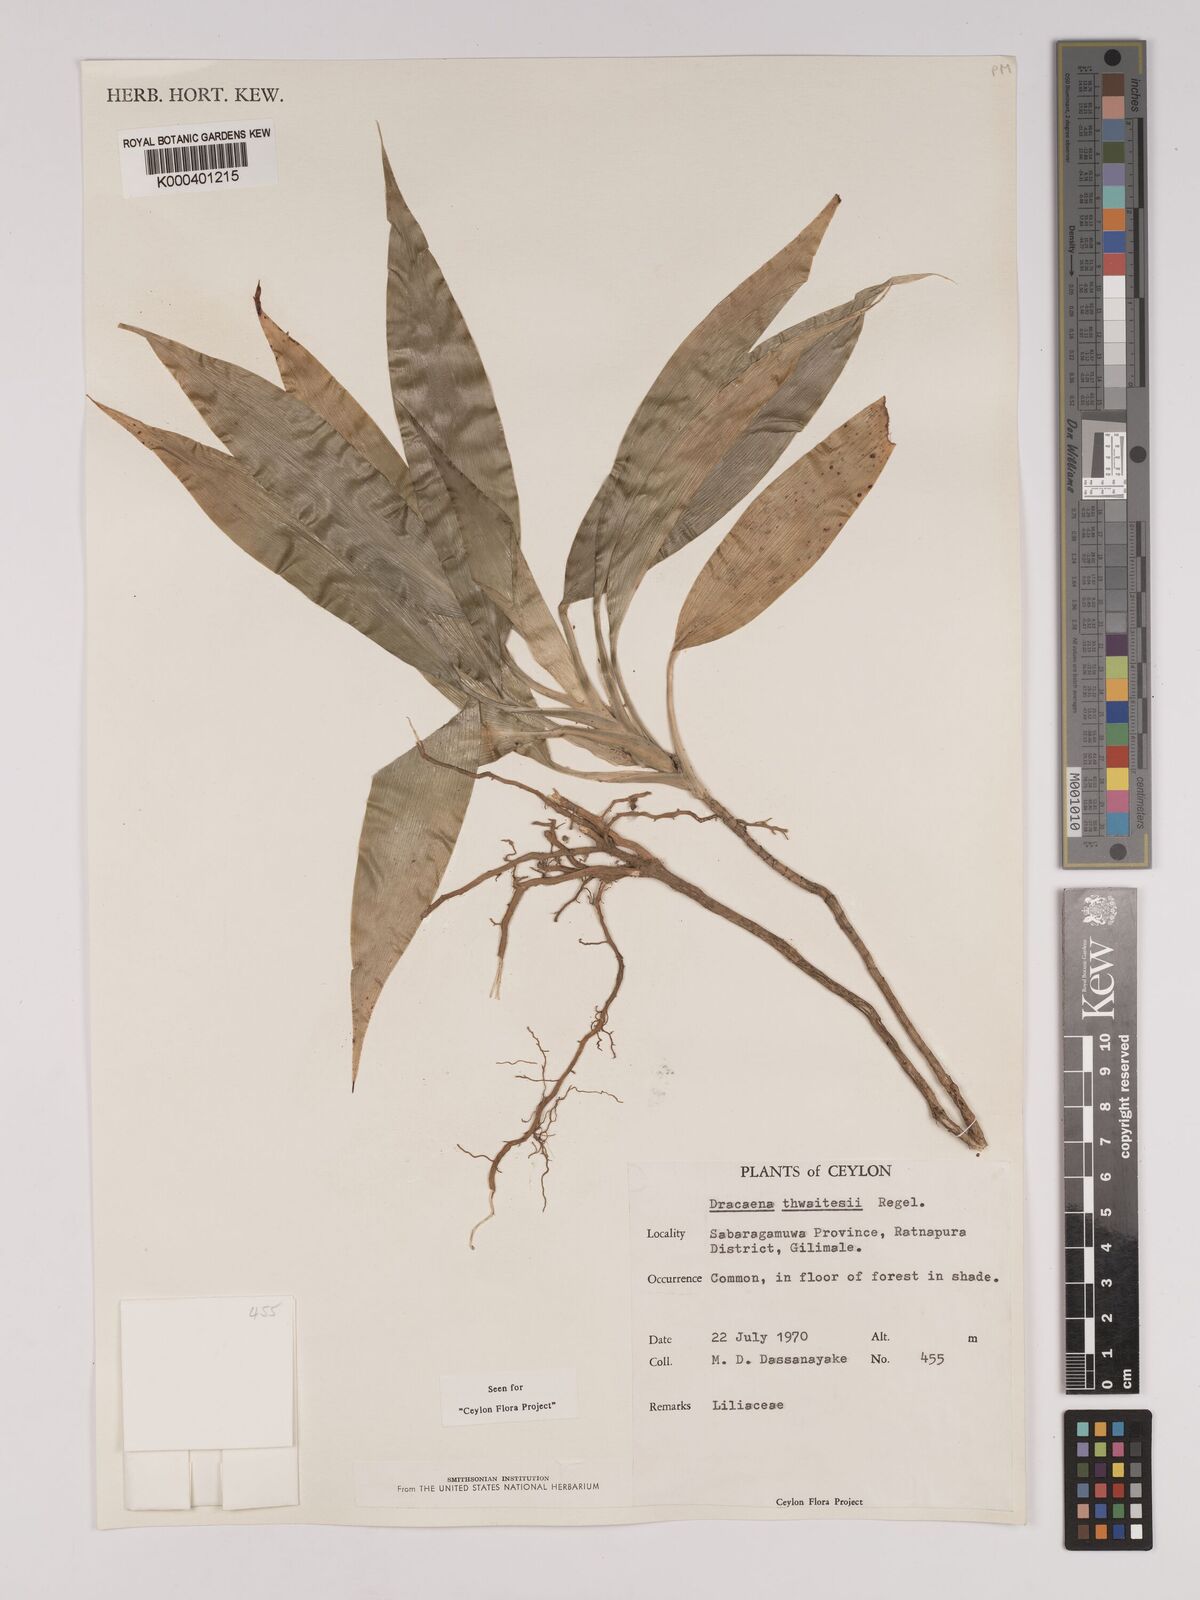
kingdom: Plantae
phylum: Tracheophyta
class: Liliopsida
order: Asparagales
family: Asparagaceae
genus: Dracaena
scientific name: Dracaena thwaitesii
